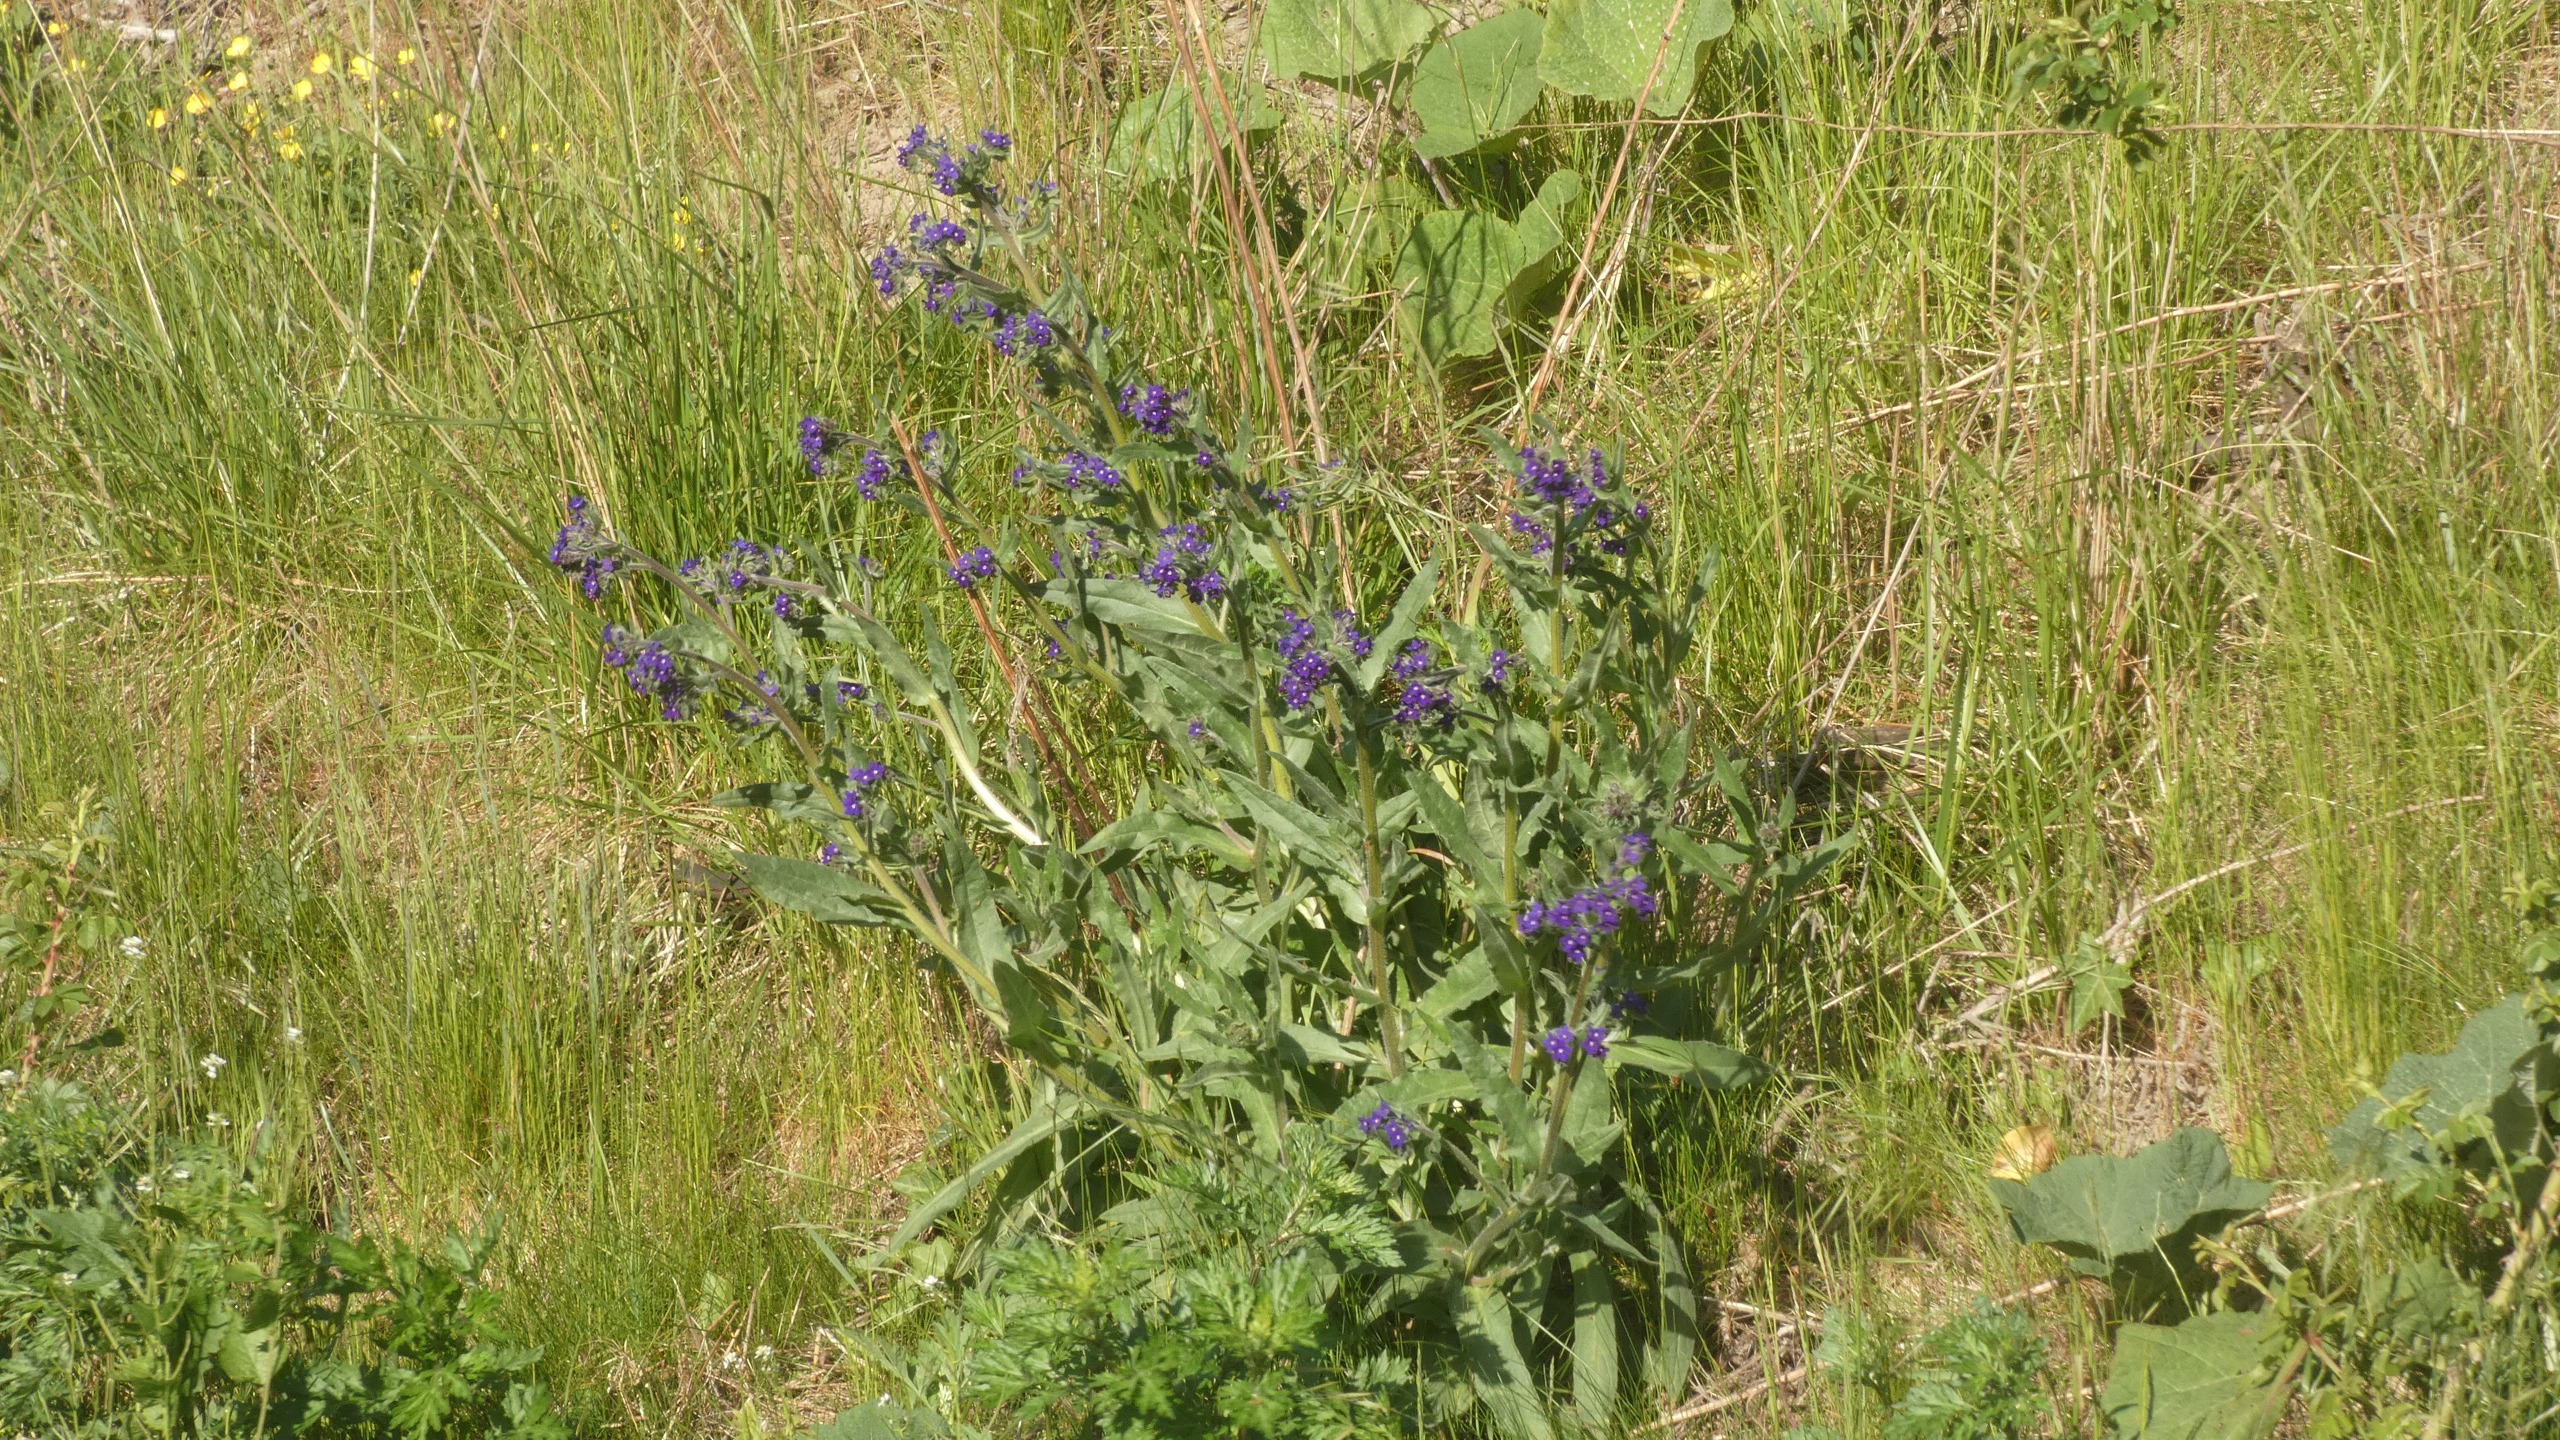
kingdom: Plantae
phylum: Tracheophyta
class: Magnoliopsida
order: Boraginales
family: Boraginaceae
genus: Anchusa
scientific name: Anchusa officinalis
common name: Læge-oksetunge
